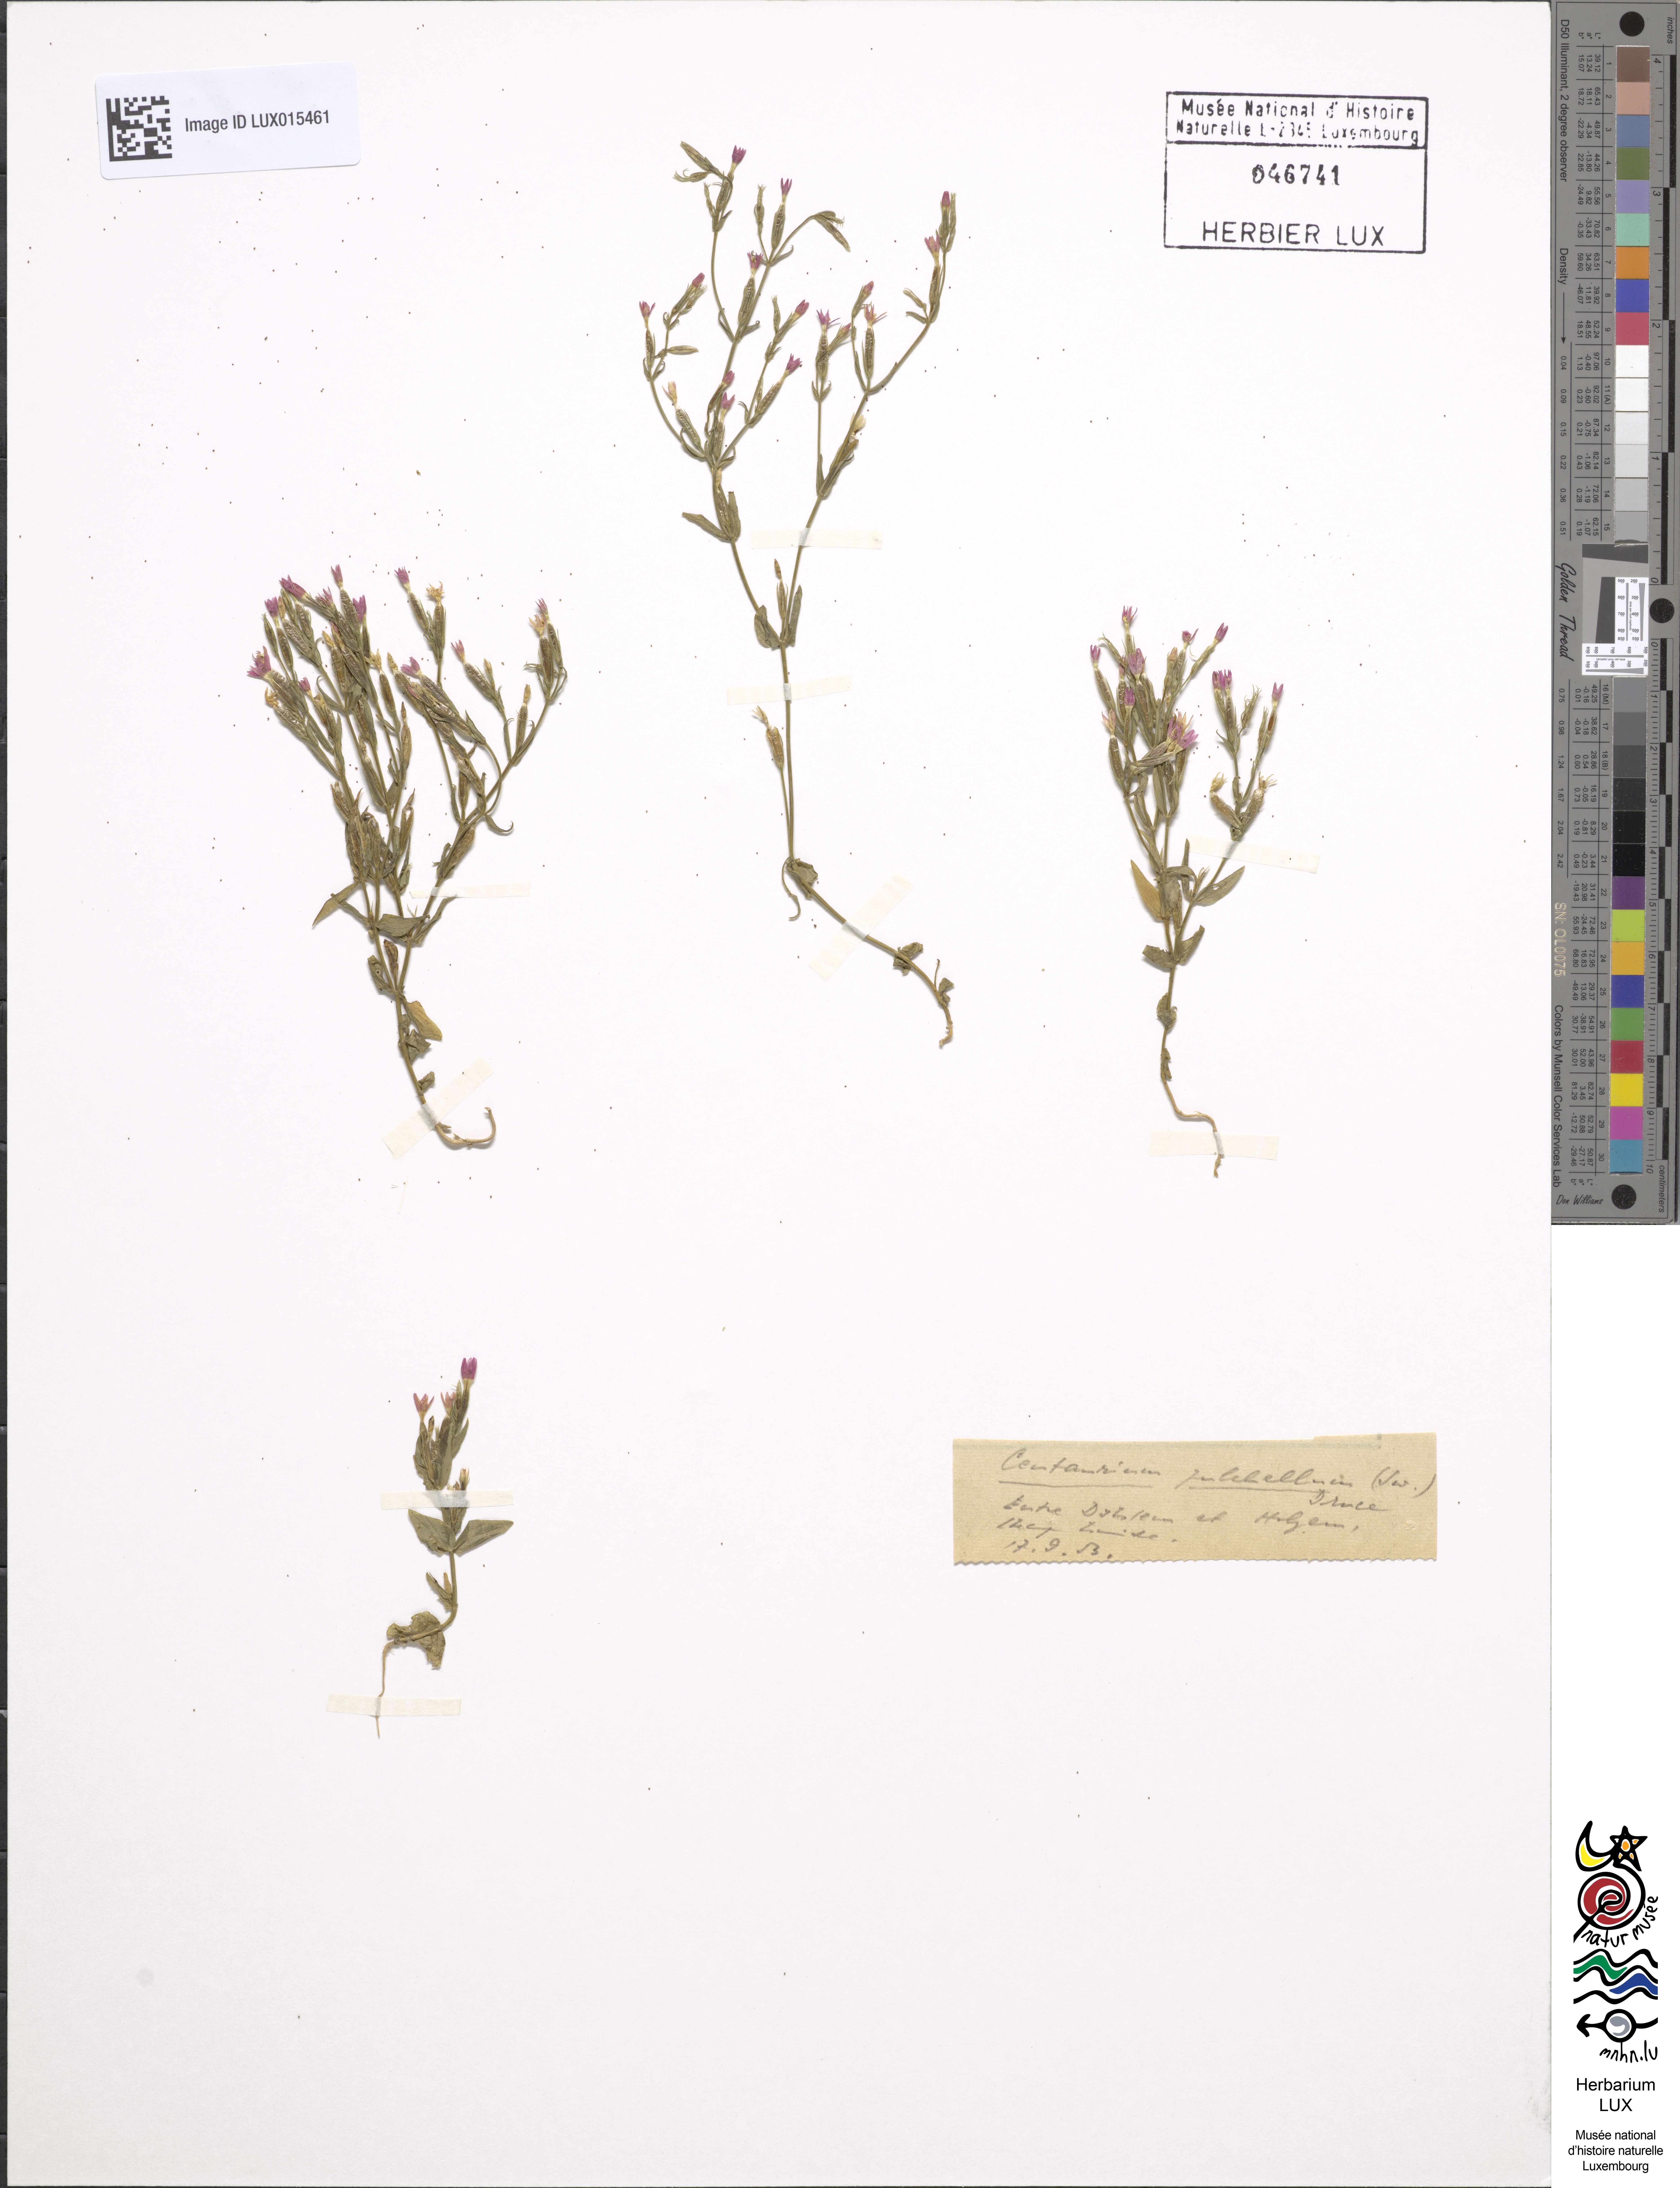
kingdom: Plantae
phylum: Tracheophyta
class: Magnoliopsida
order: Gentianales
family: Gentianaceae
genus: Centaurium
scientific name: Centaurium pulchellum
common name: Lesser centaury
